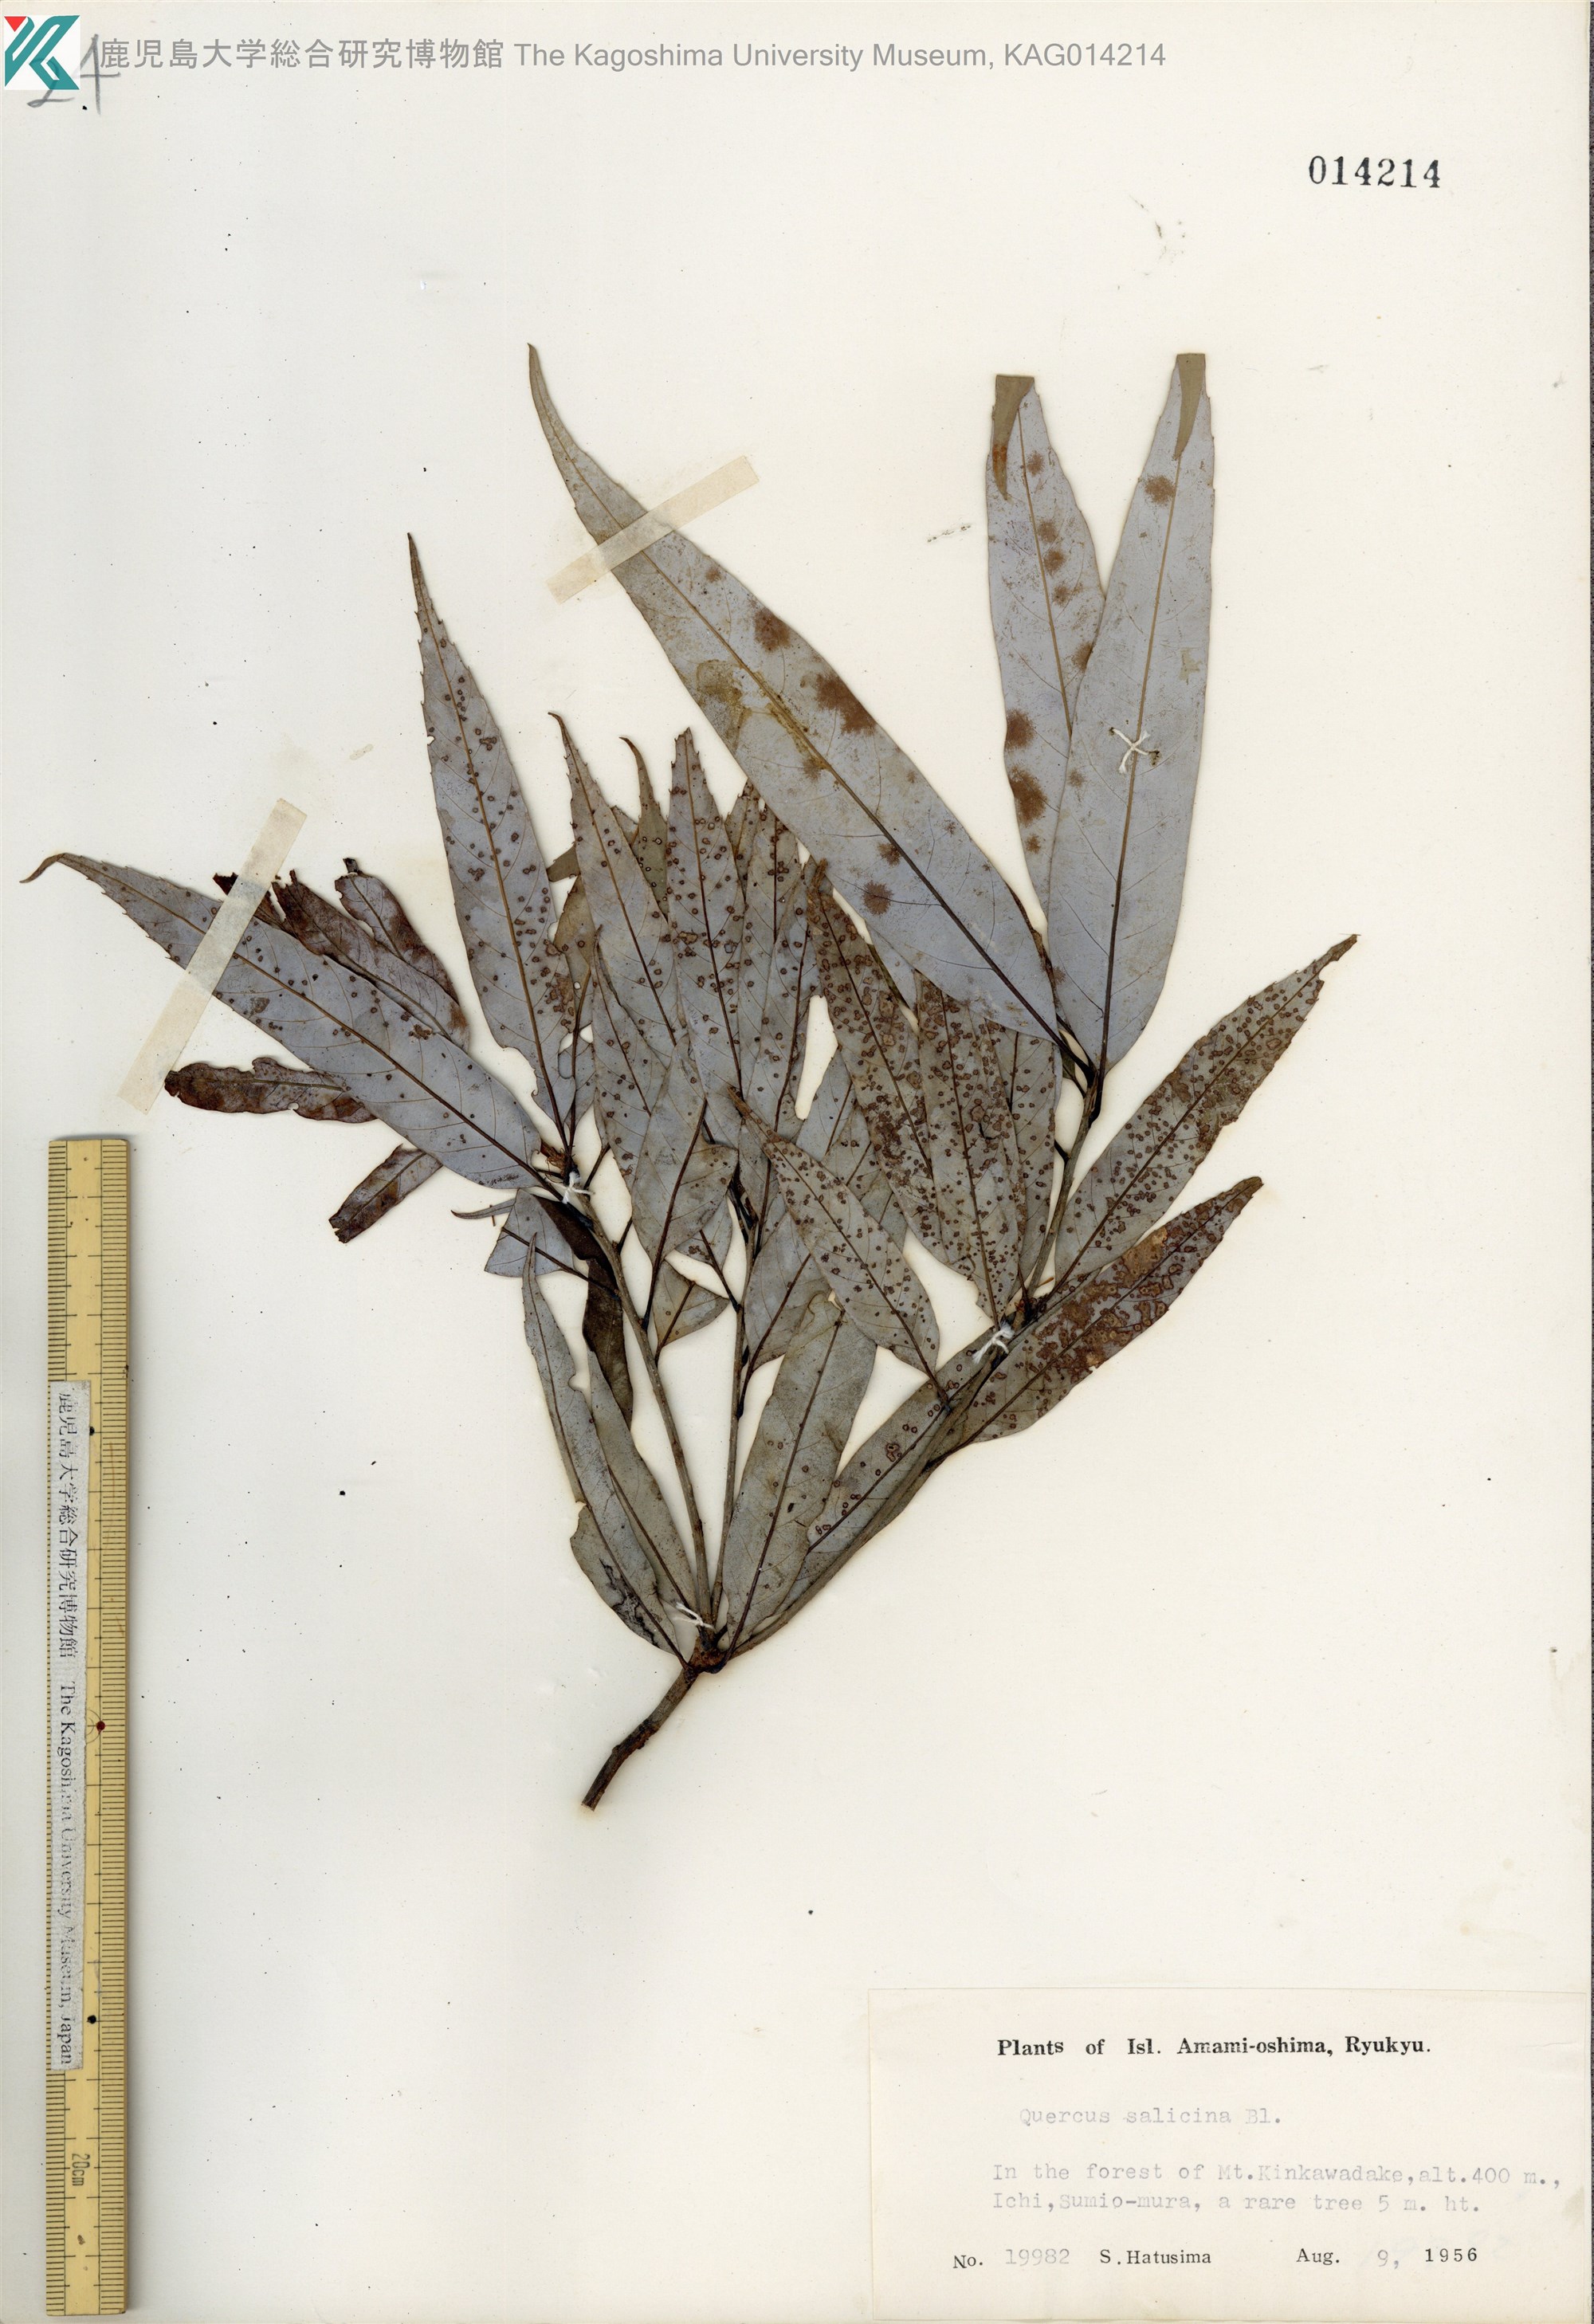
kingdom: Plantae
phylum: Tracheophyta
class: Magnoliopsida
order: Fagales
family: Fagaceae
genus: Quercus
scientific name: Quercus salicina
